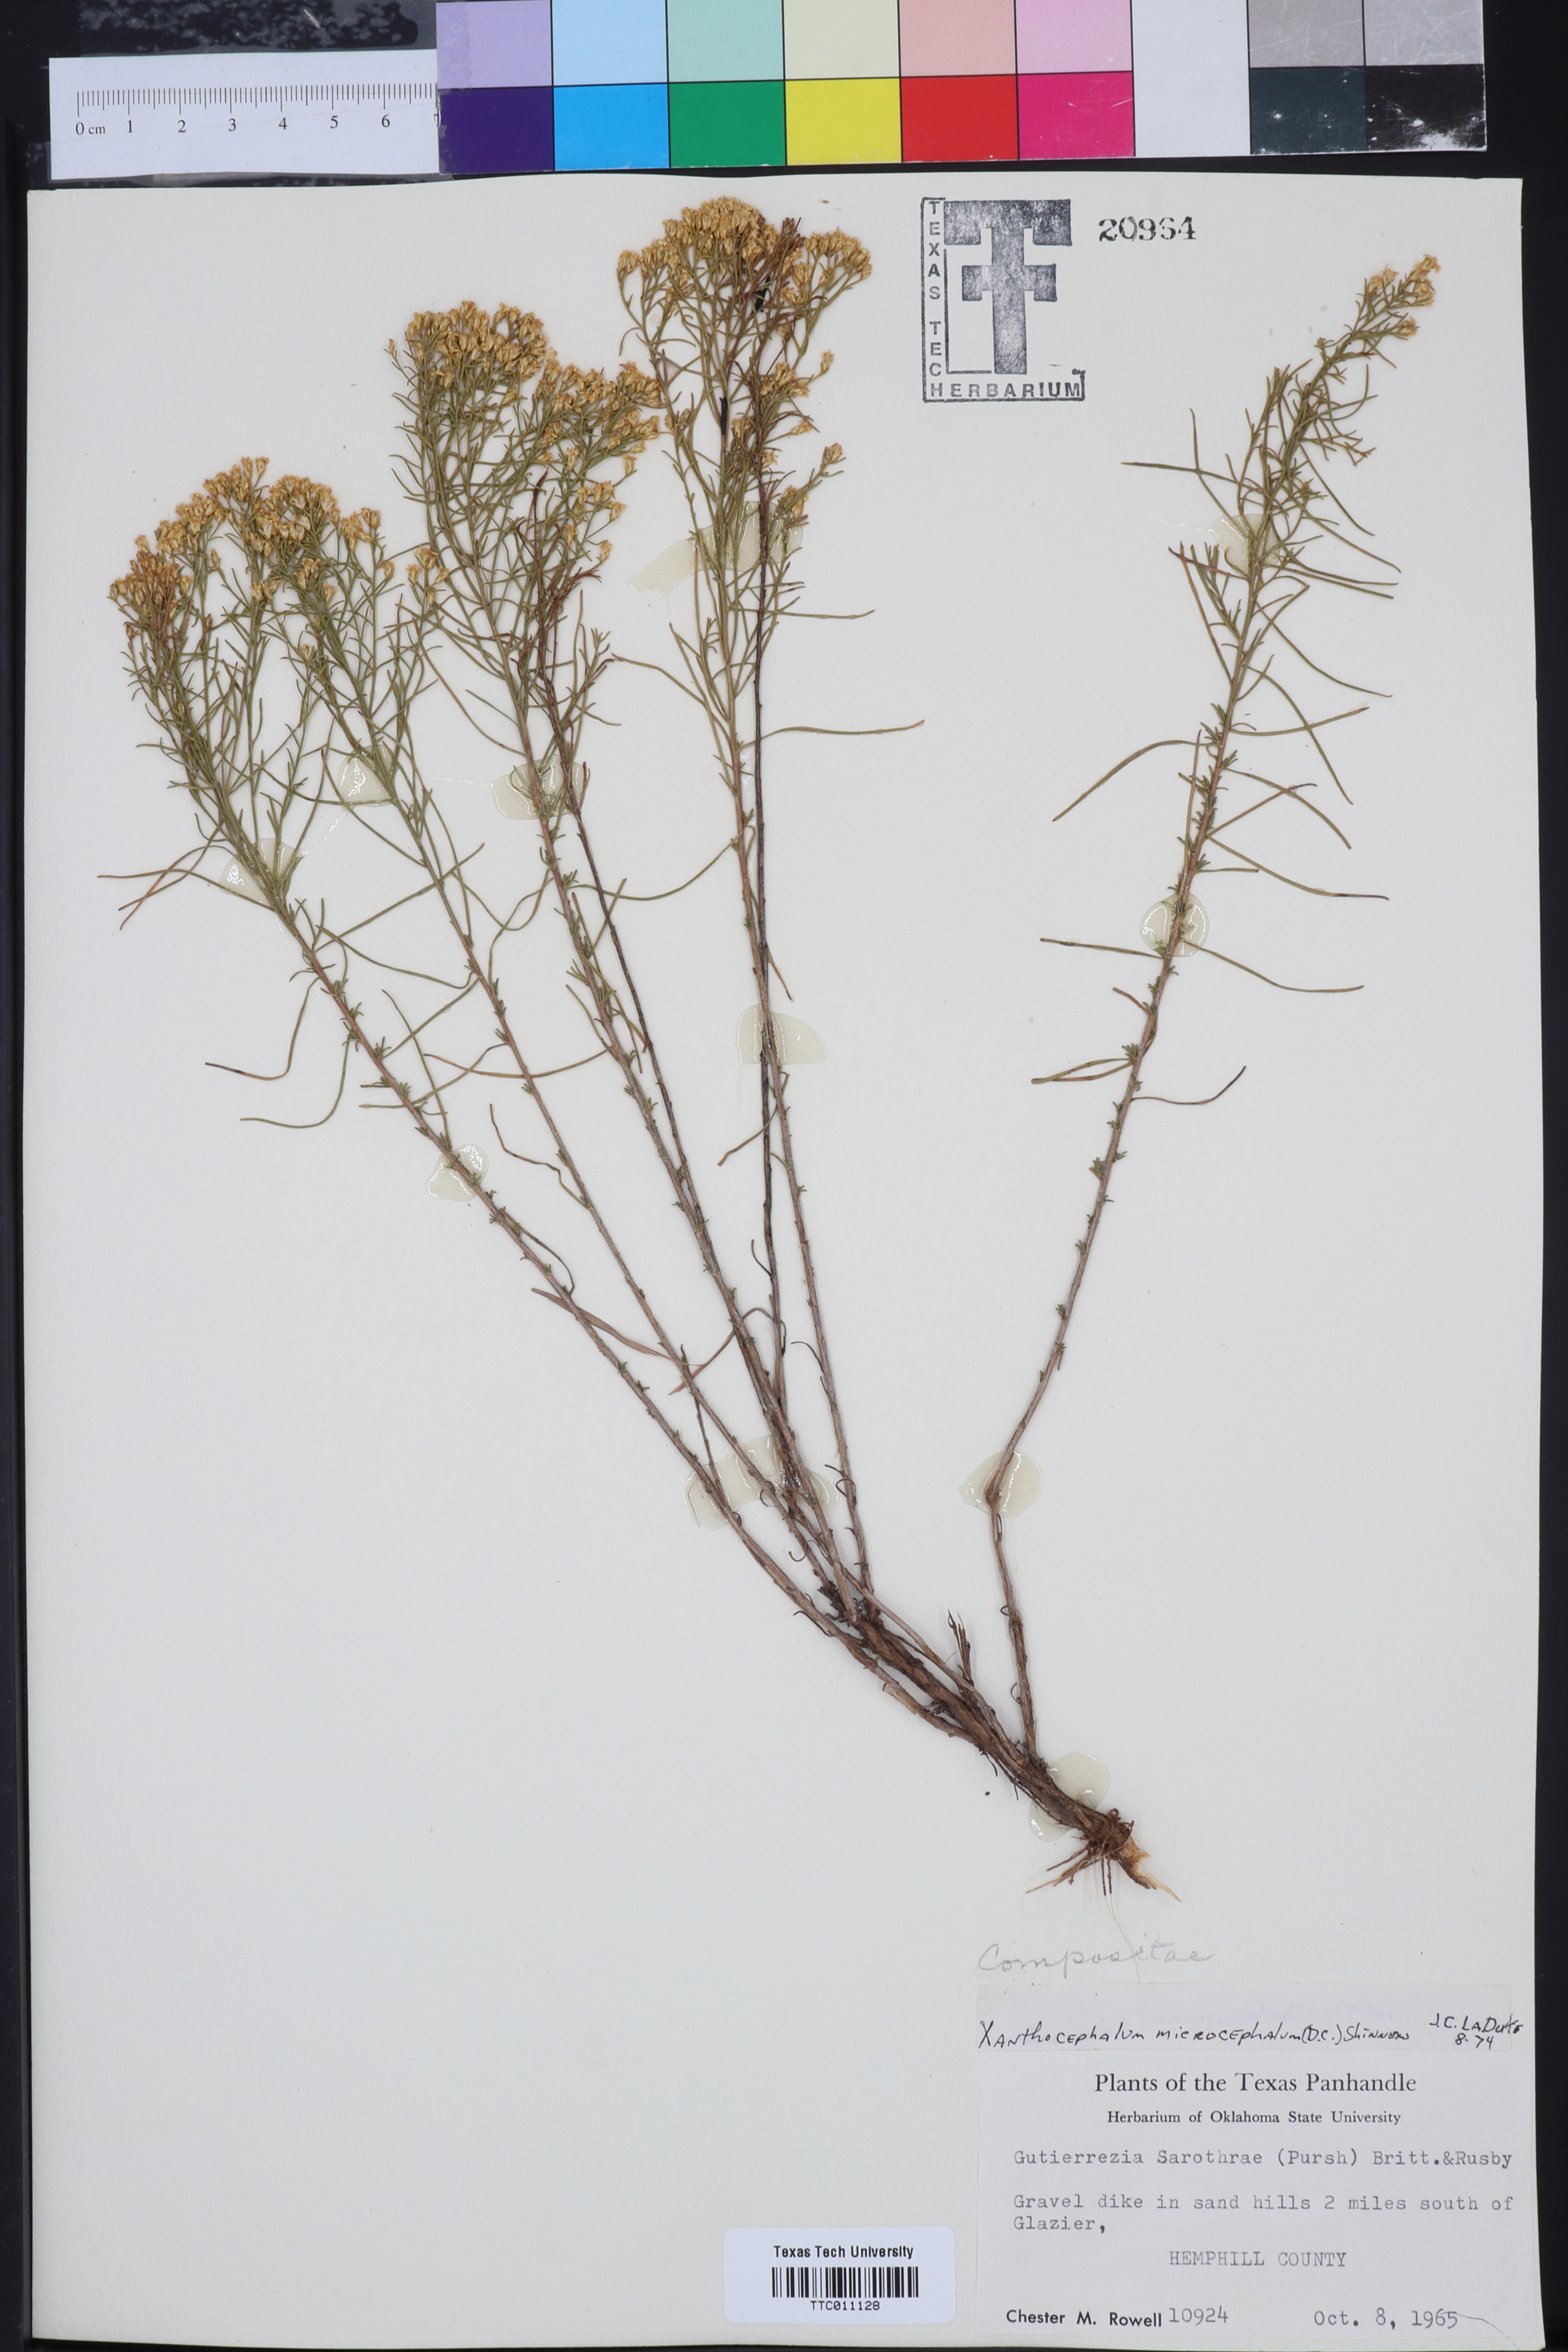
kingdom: Plantae
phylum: Tracheophyta
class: Magnoliopsida
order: Asterales
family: Asteraceae
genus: Gutierrezia
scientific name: Gutierrezia microcephala
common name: Thread snakeweed
